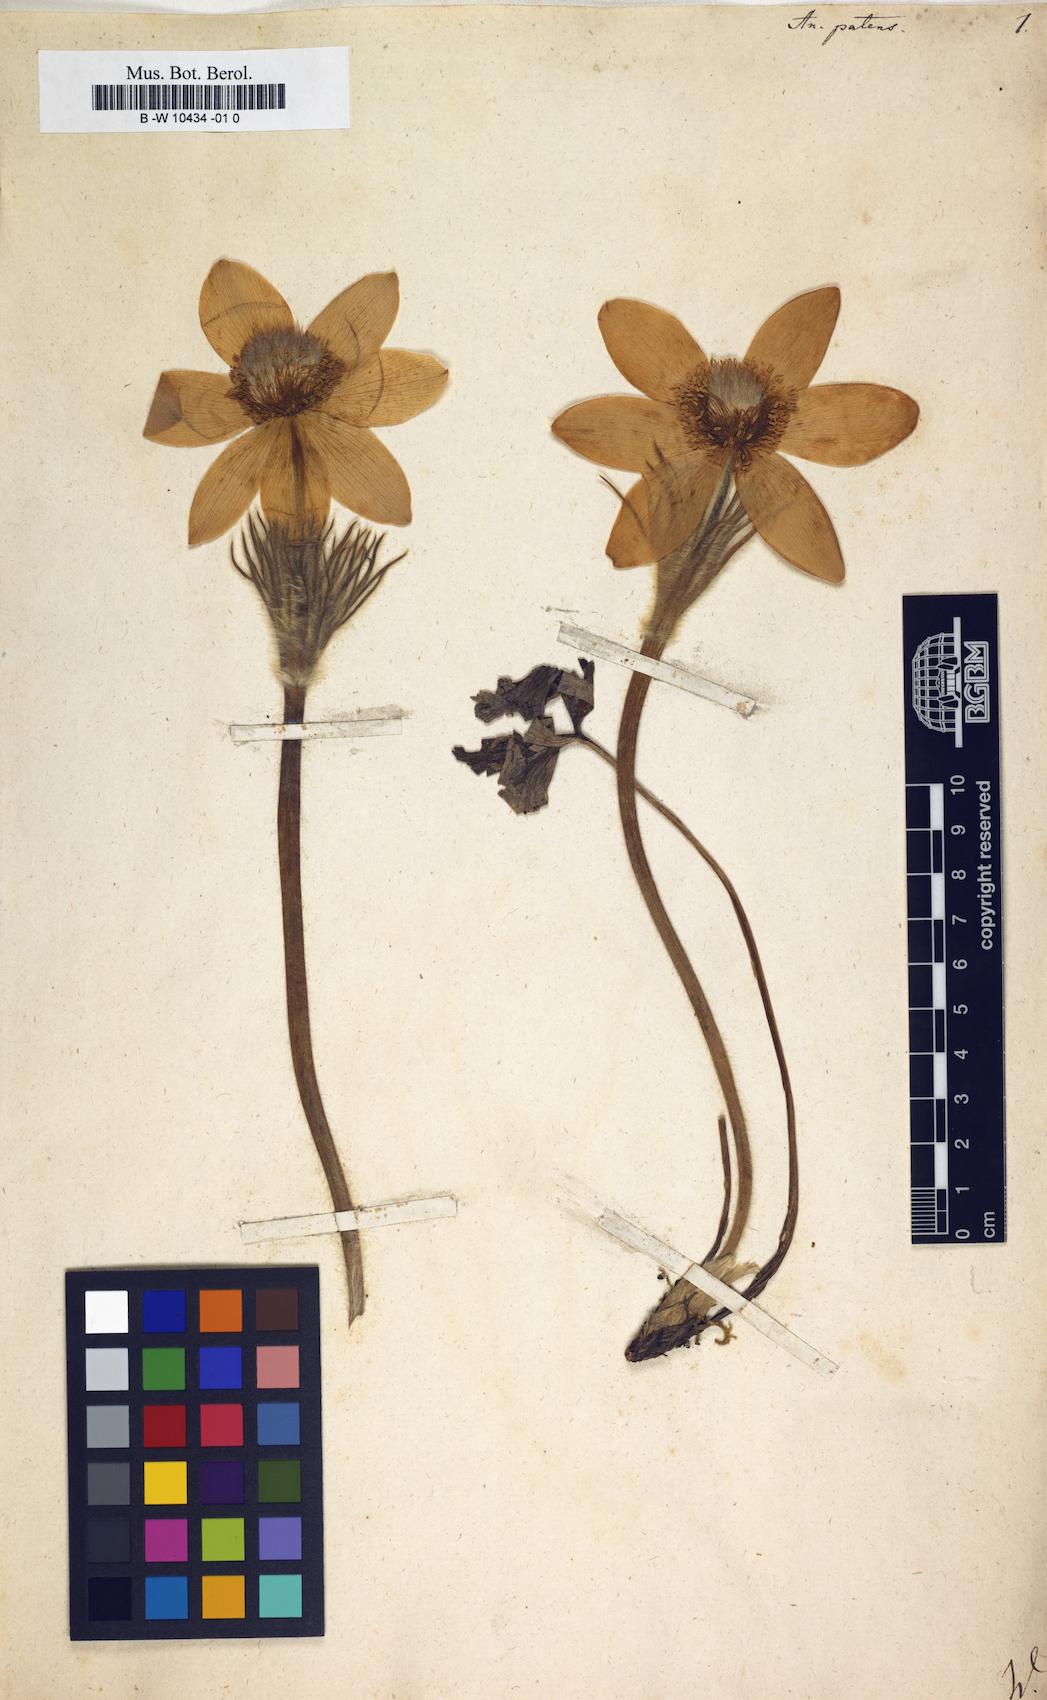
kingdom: Plantae
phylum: Tracheophyta
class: Magnoliopsida
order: Ranunculales
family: Ranunculaceae
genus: Pulsatilla
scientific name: Pulsatilla patens
